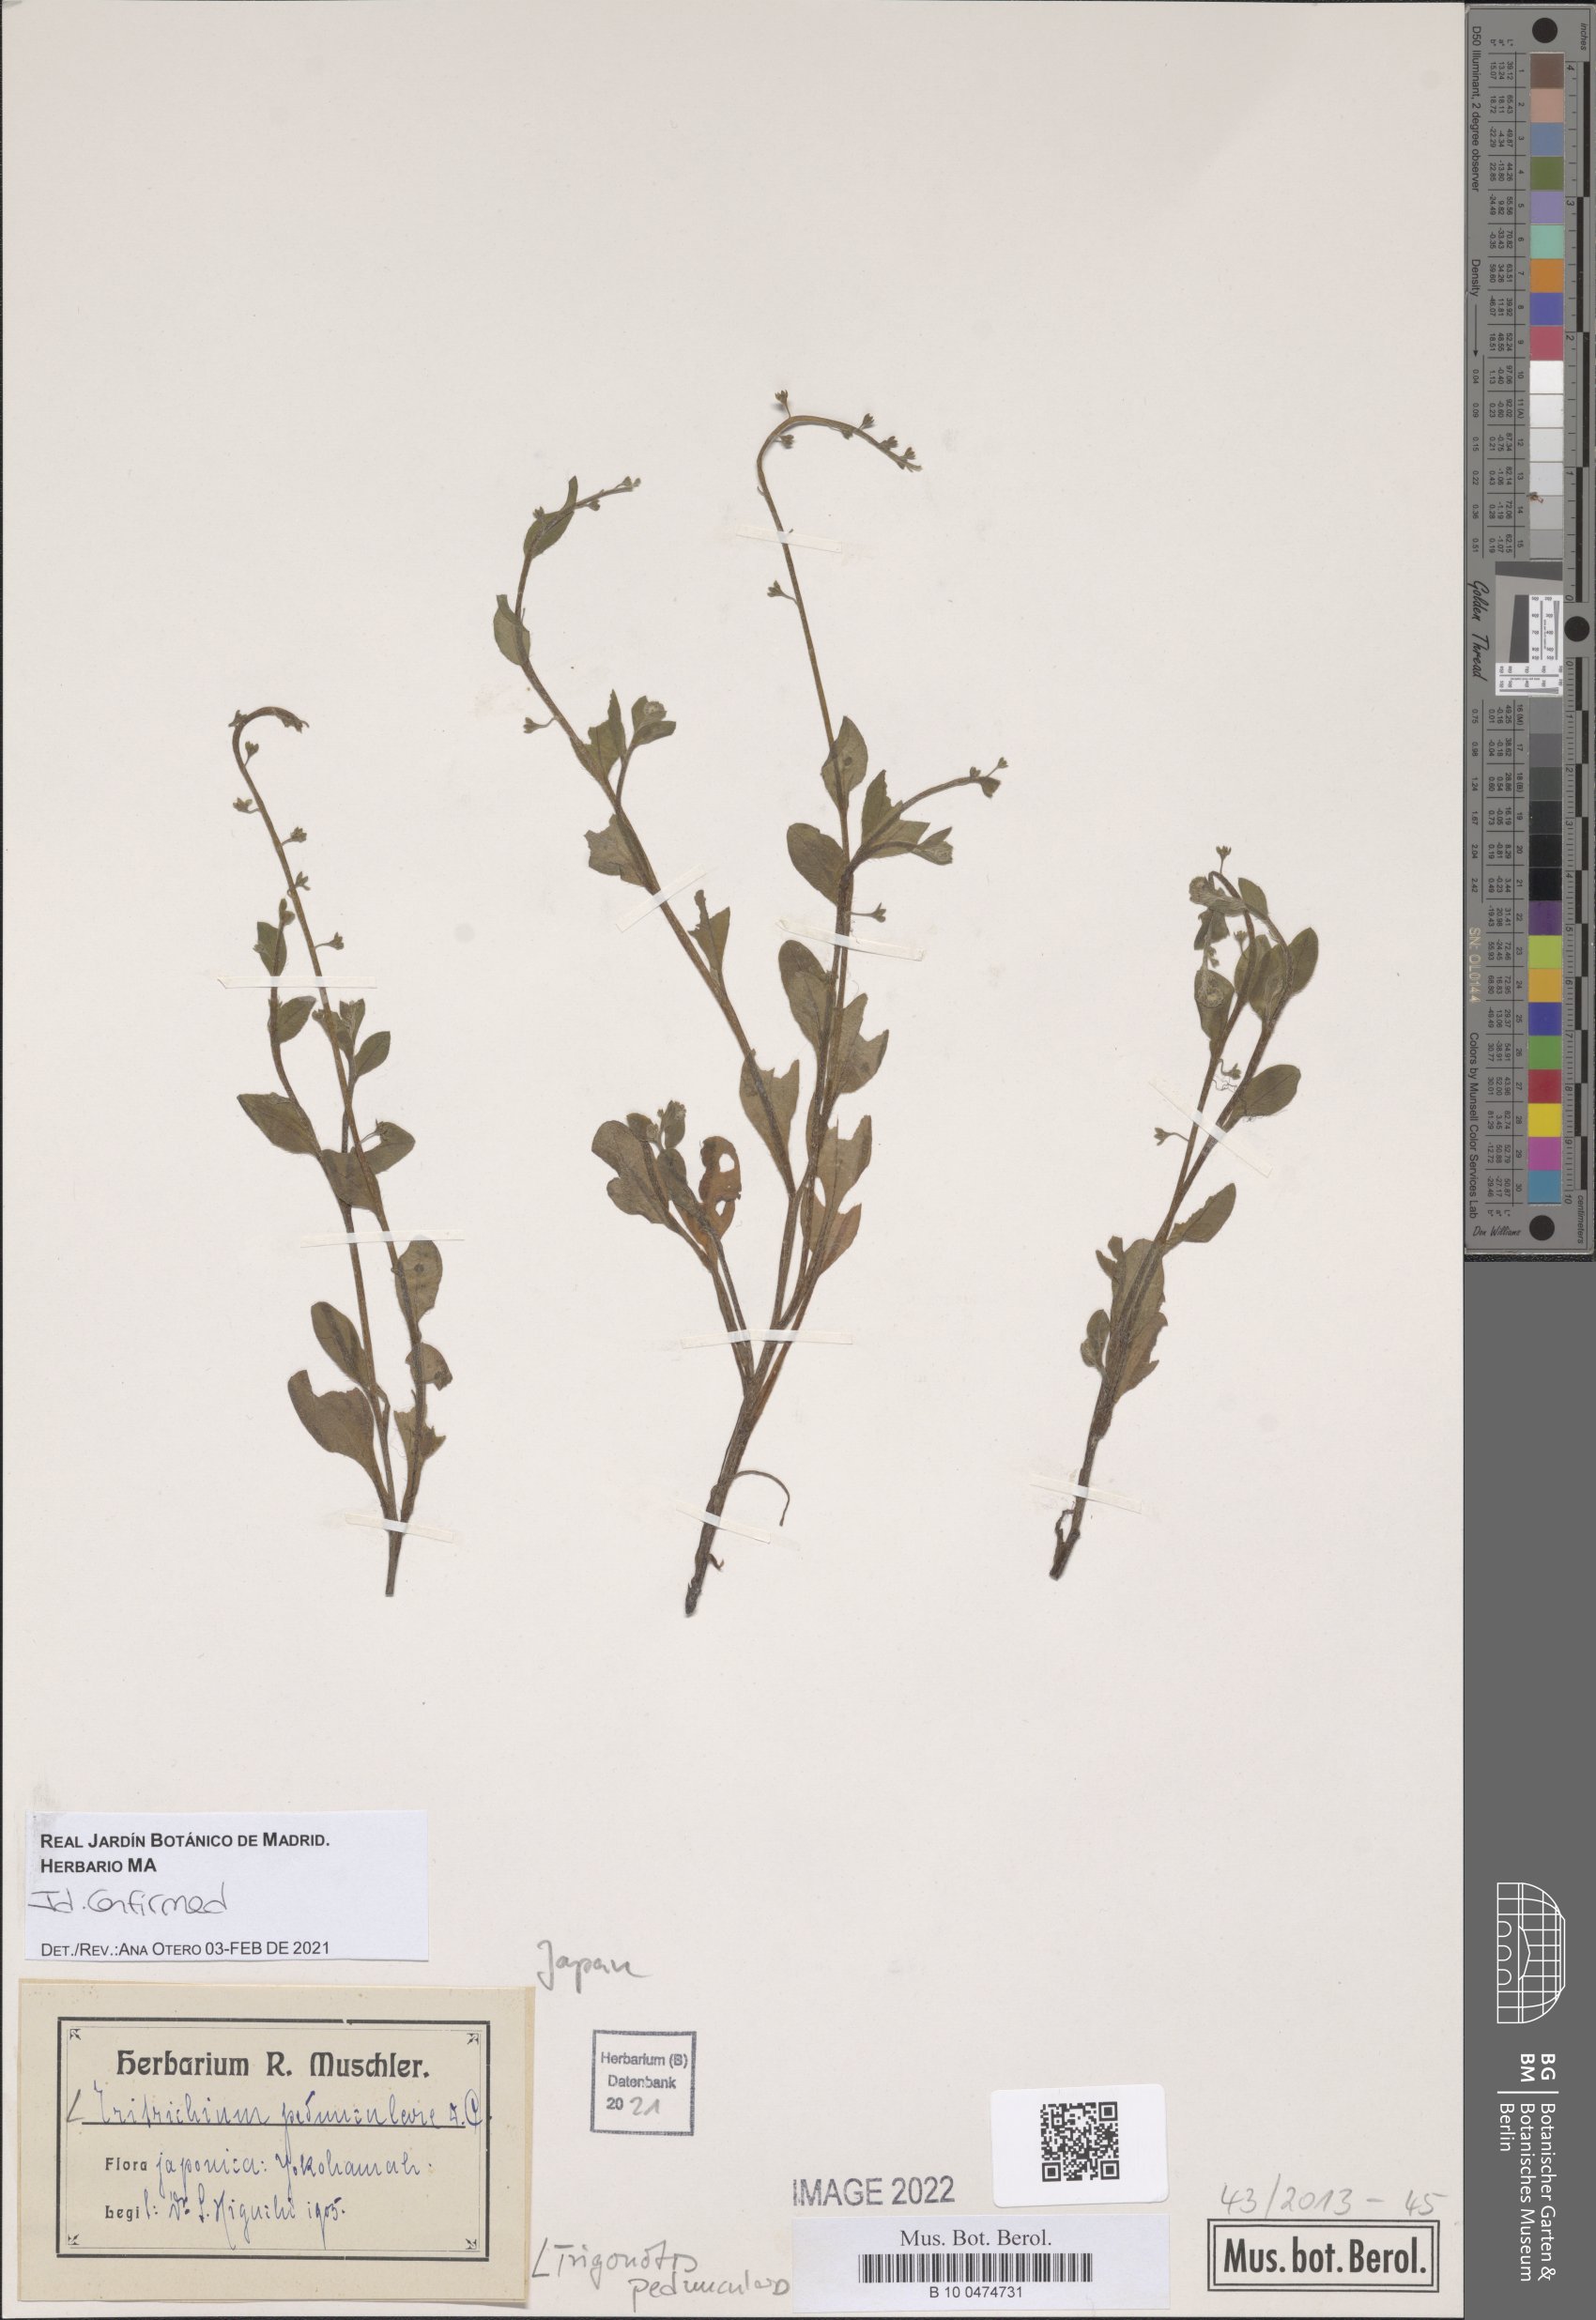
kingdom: Plantae
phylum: Tracheophyta
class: Magnoliopsida
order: Boraginales
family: Boraginaceae
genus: Trigonotis
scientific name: Trigonotis peduncularis
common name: Cucumber herb
